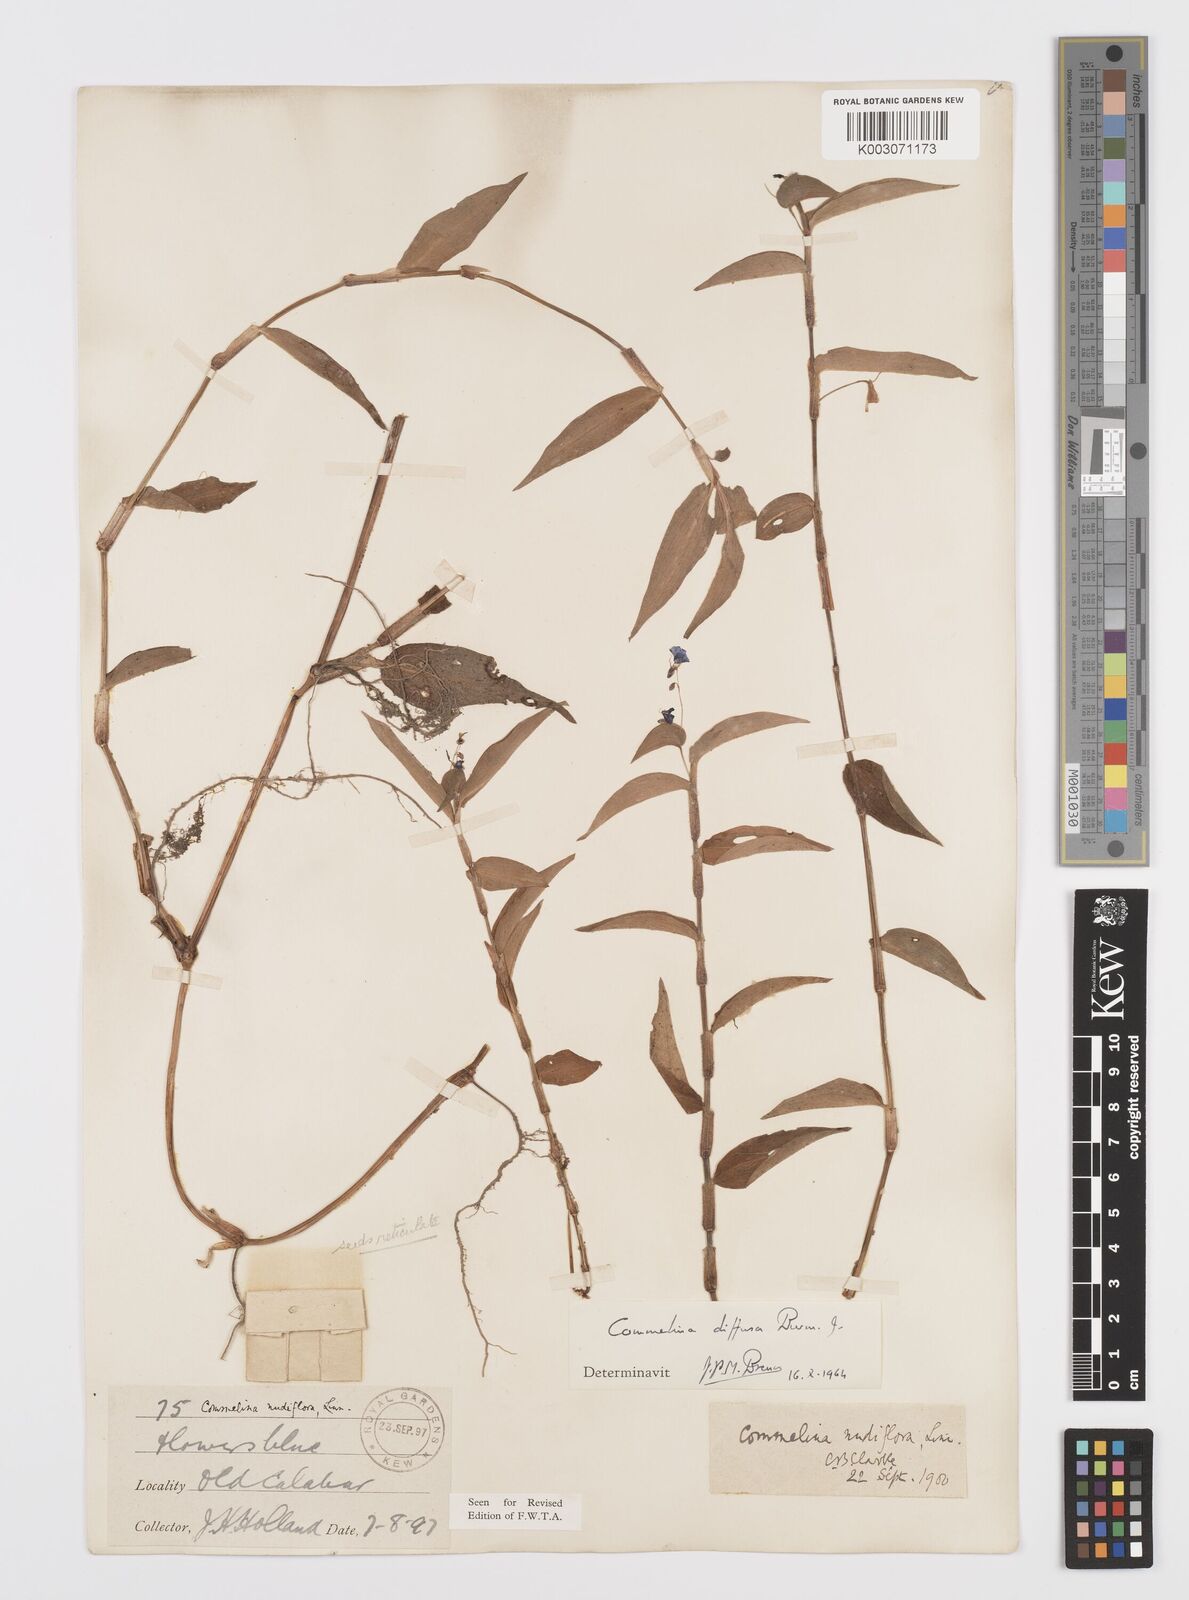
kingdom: Plantae
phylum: Tracheophyta
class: Liliopsida
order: Commelinales
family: Commelinaceae
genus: Commelina
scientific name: Commelina diffusa
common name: Climbing dayflower
